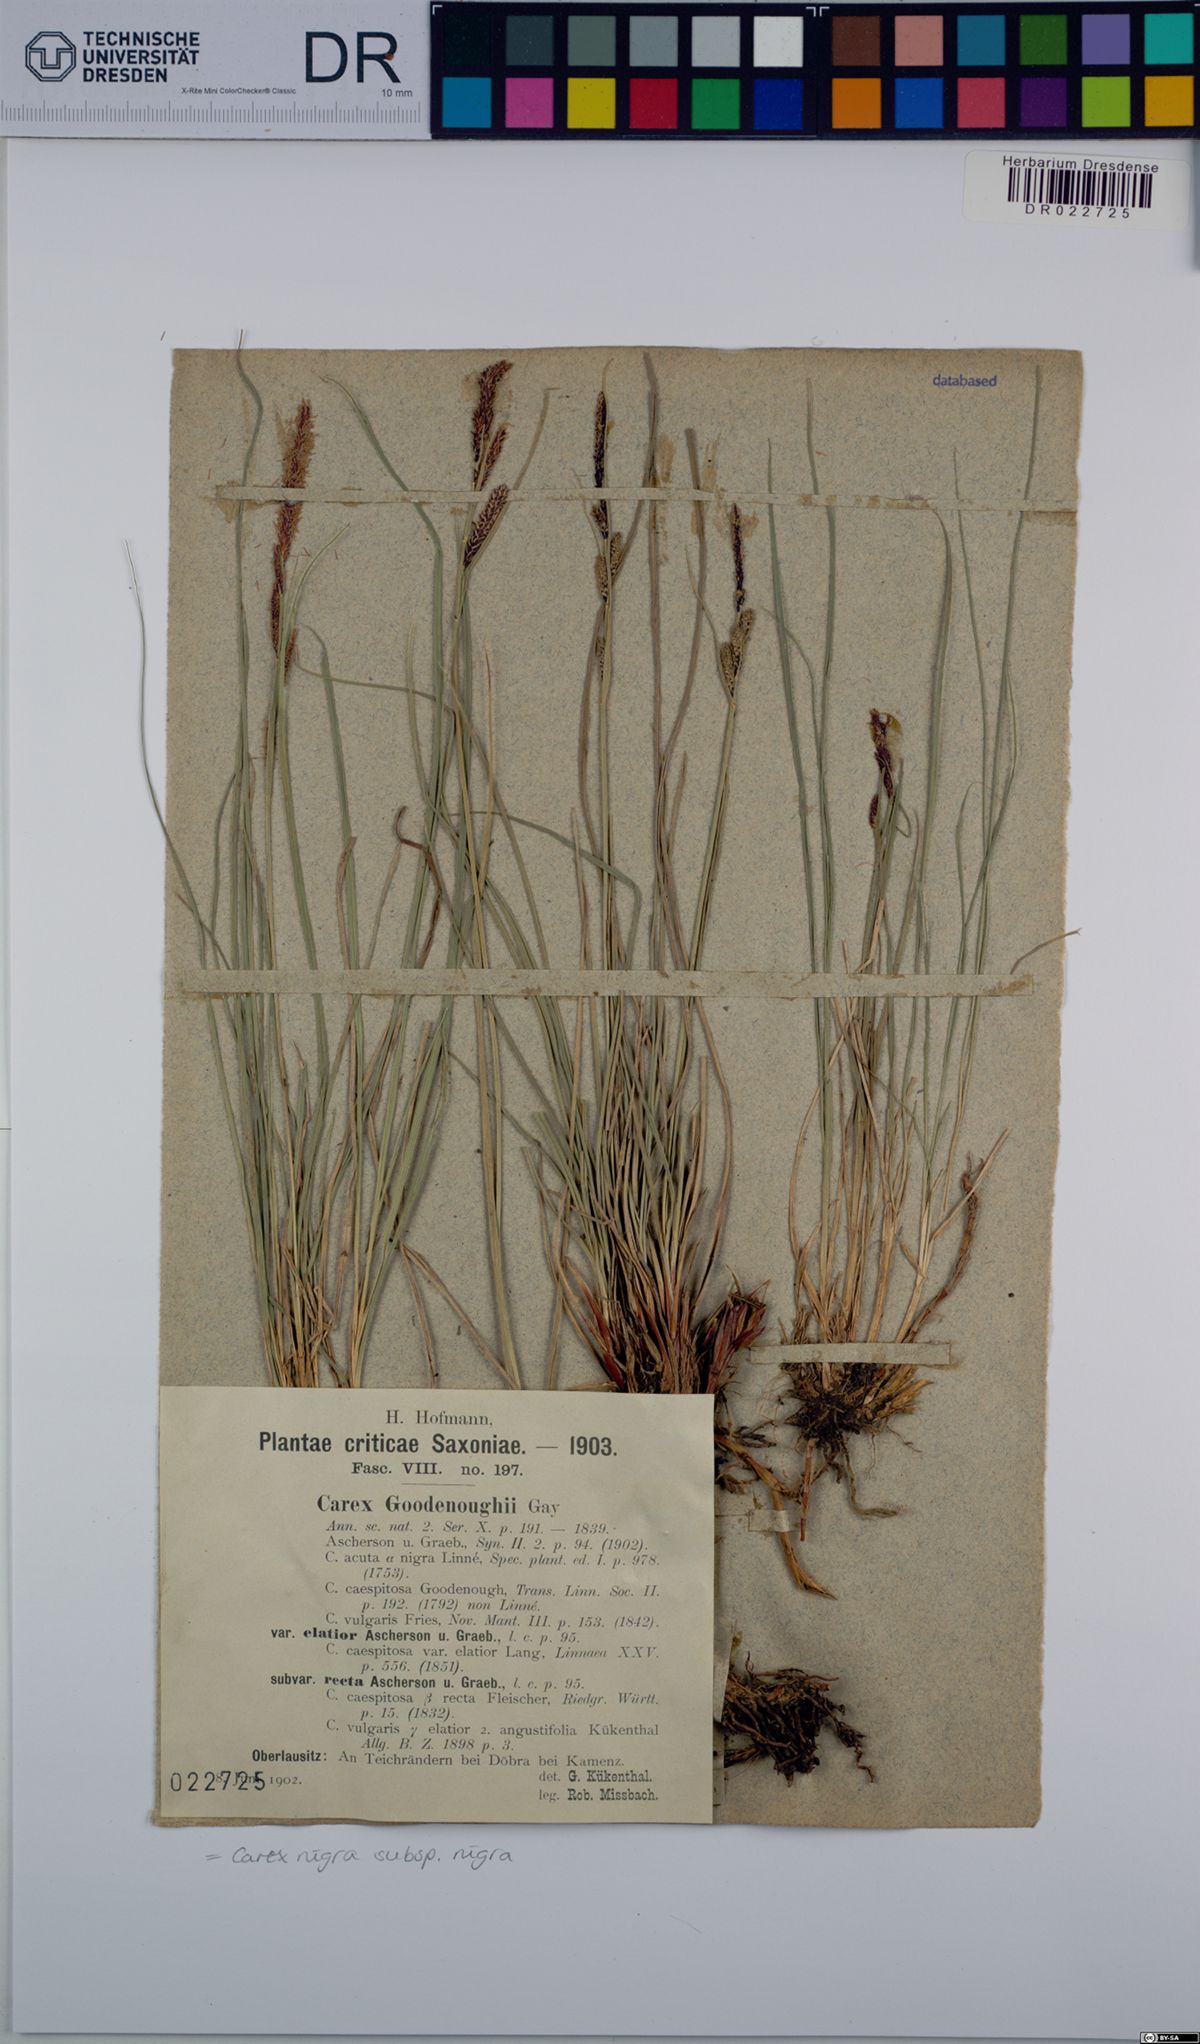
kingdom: Plantae
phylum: Tracheophyta
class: Liliopsida
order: Poales
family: Cyperaceae
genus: Carex
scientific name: Carex nigra
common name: Common sedge
